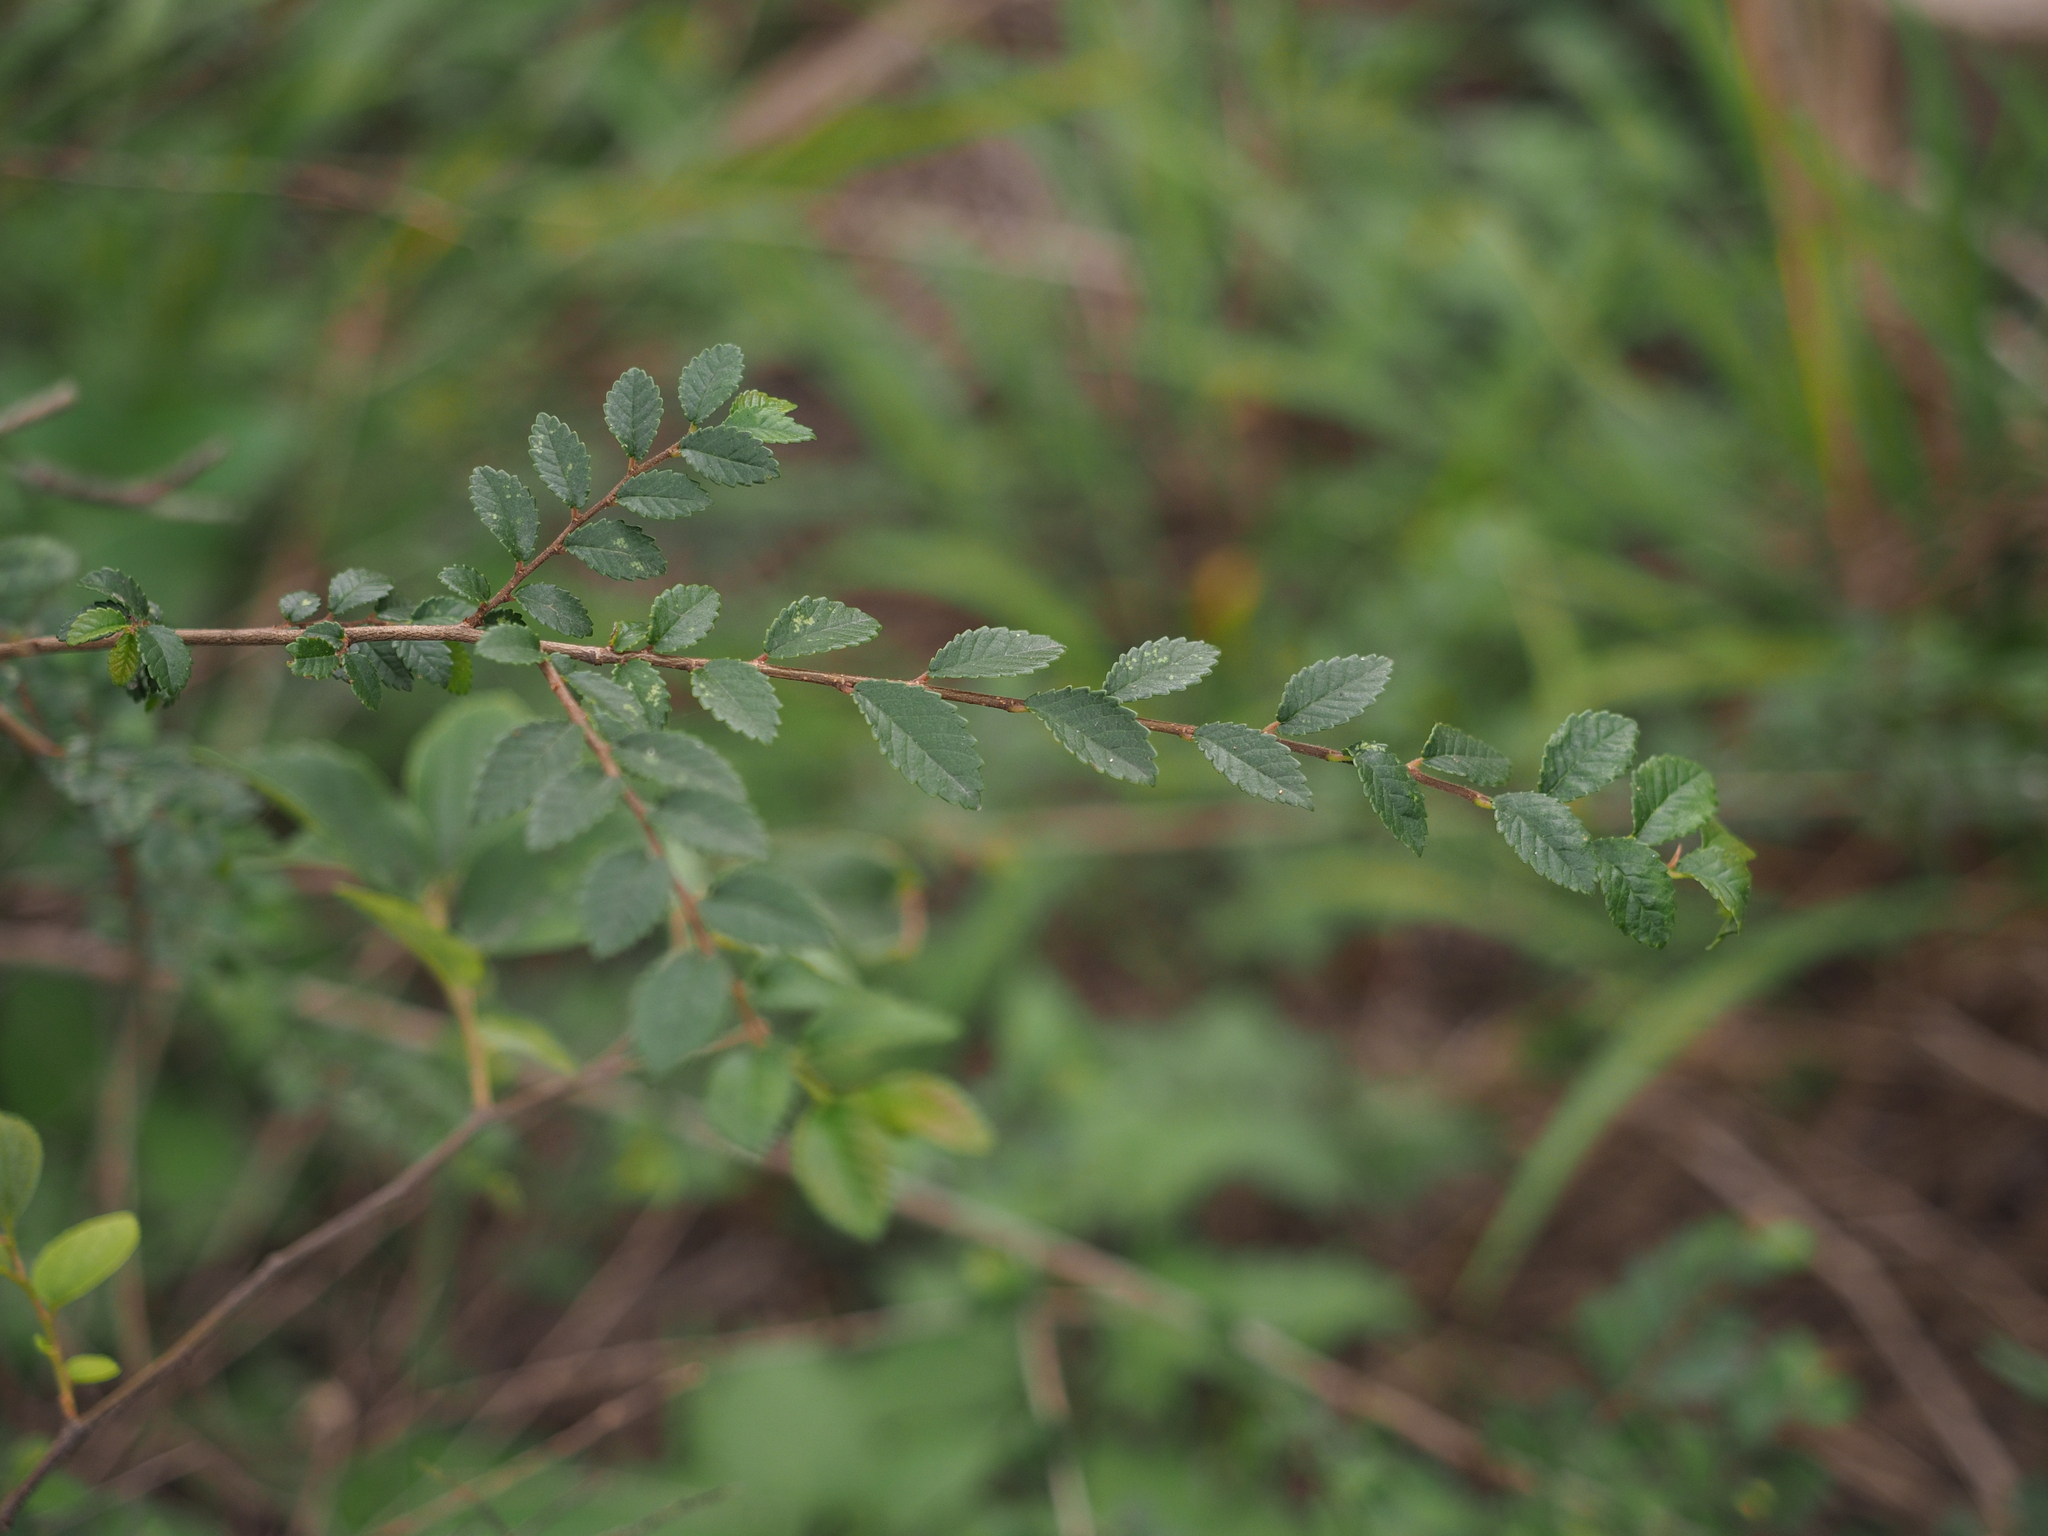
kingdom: Plantae
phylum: Tracheophyta
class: Magnoliopsida
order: Rosales
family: Ulmaceae
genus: Ulmus
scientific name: Ulmus parvifolia
